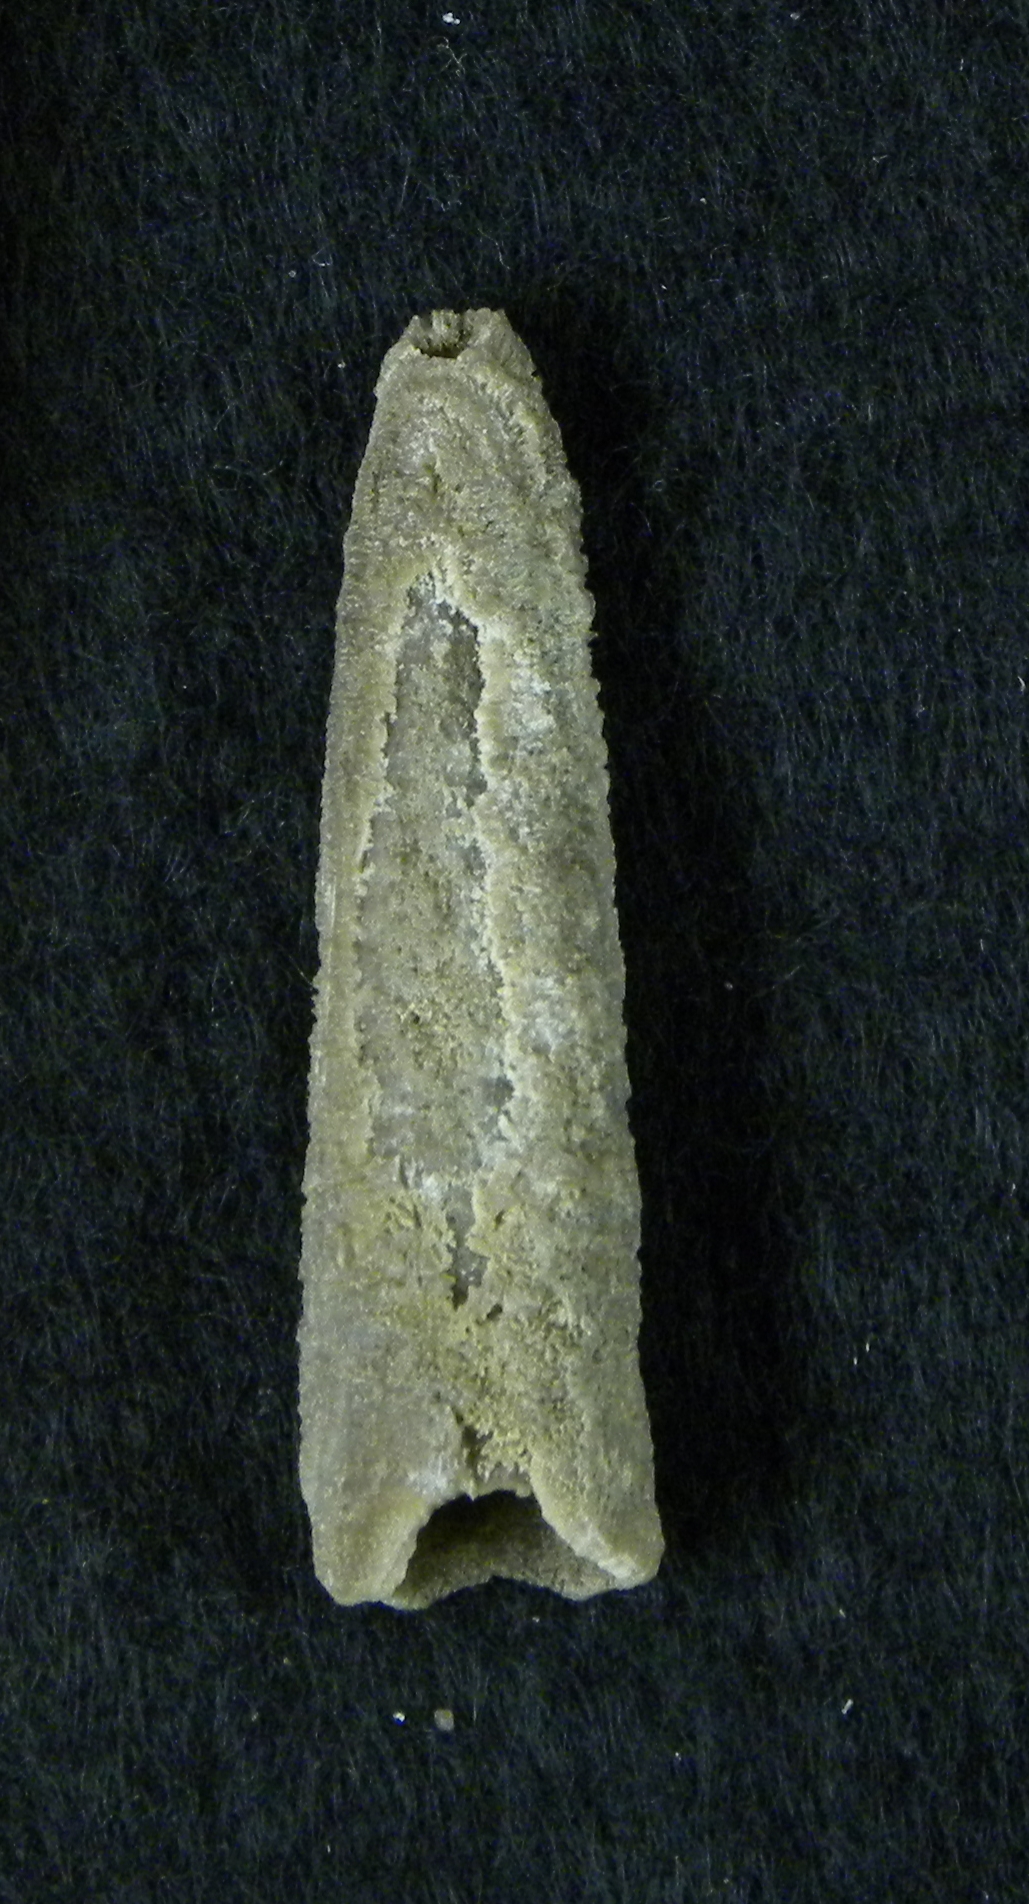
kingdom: Animalia
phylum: Mollusca
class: Cephalopoda
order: Belemnitida
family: Megateuthididae
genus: Dactyloteuthis
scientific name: Dactyloteuthis
